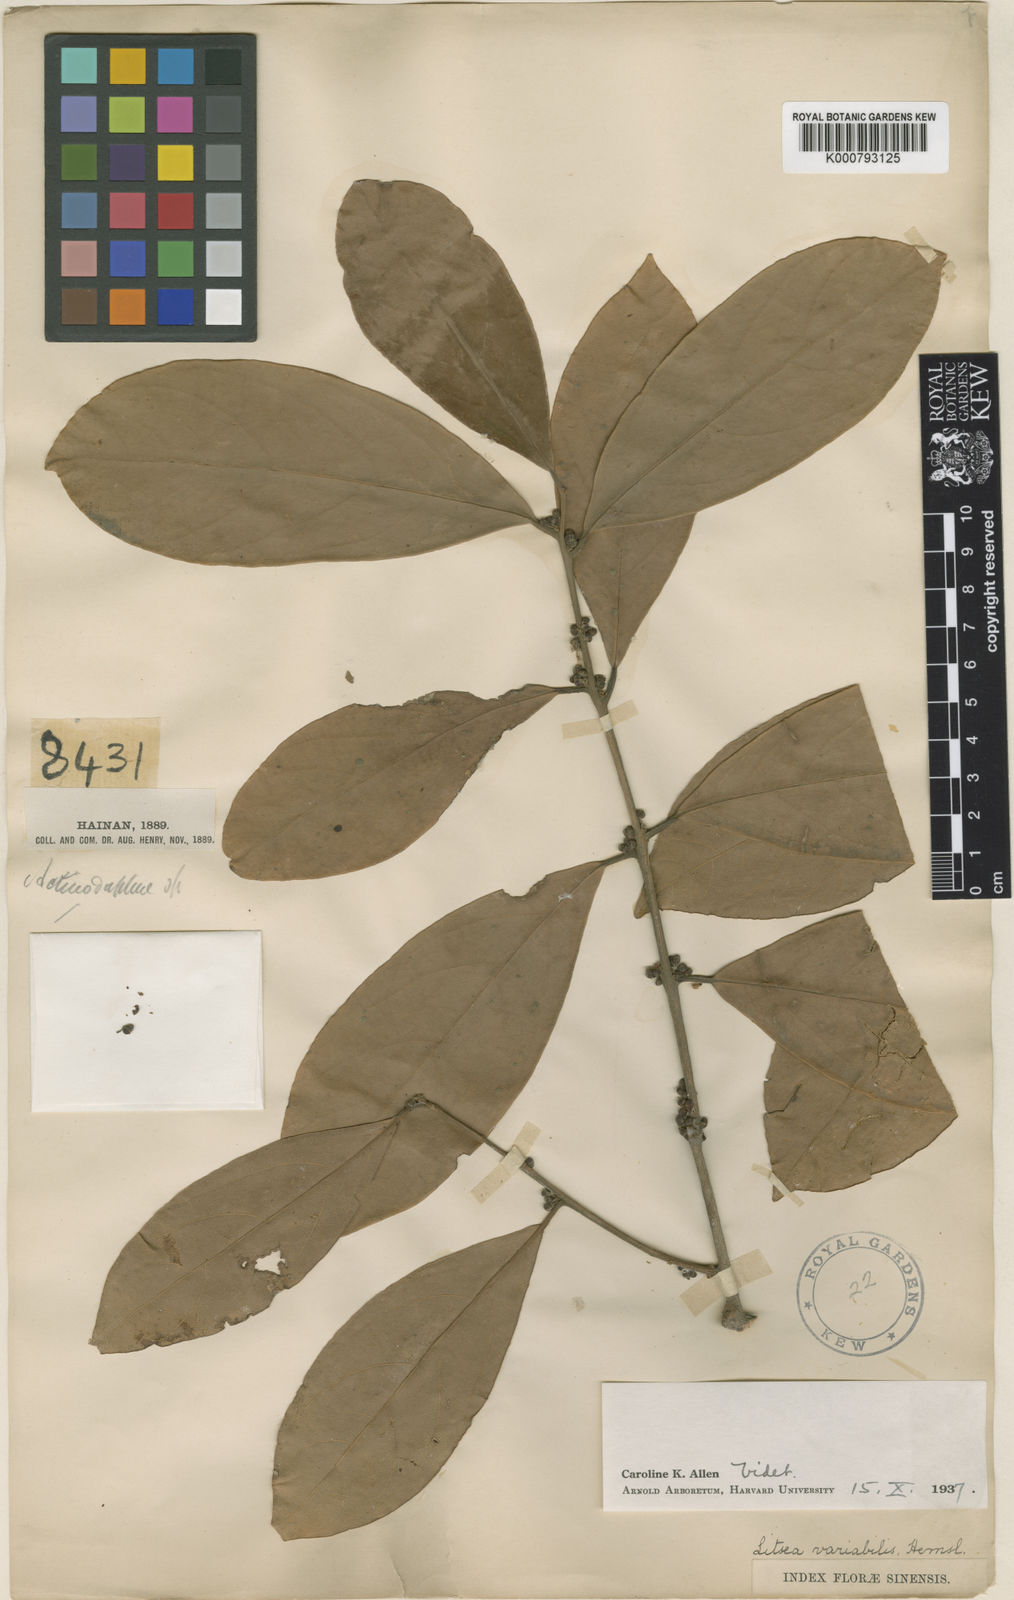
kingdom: Plantae
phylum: Tracheophyta
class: Magnoliopsida
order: Laurales
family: Lauraceae
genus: Litsea
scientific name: Litsea variabilis
